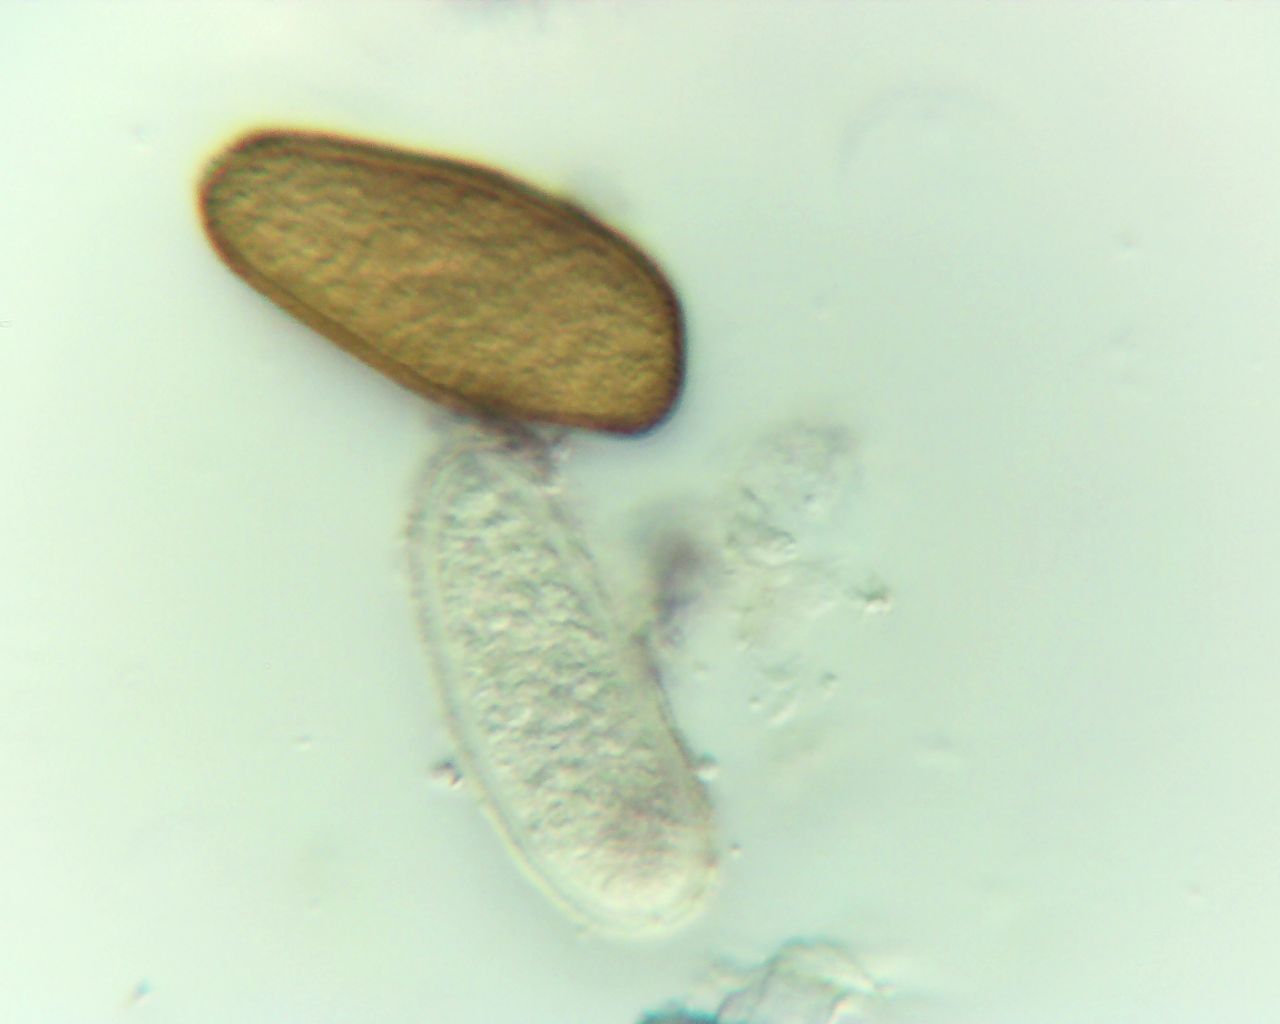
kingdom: Fungi
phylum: Ascomycota
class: Dothideomycetes
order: Botryosphaeriales
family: Botryosphaeriaceae
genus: Sphaeropsis
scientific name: Sphaeropsis sapinea
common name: Sphaeropsis blight
